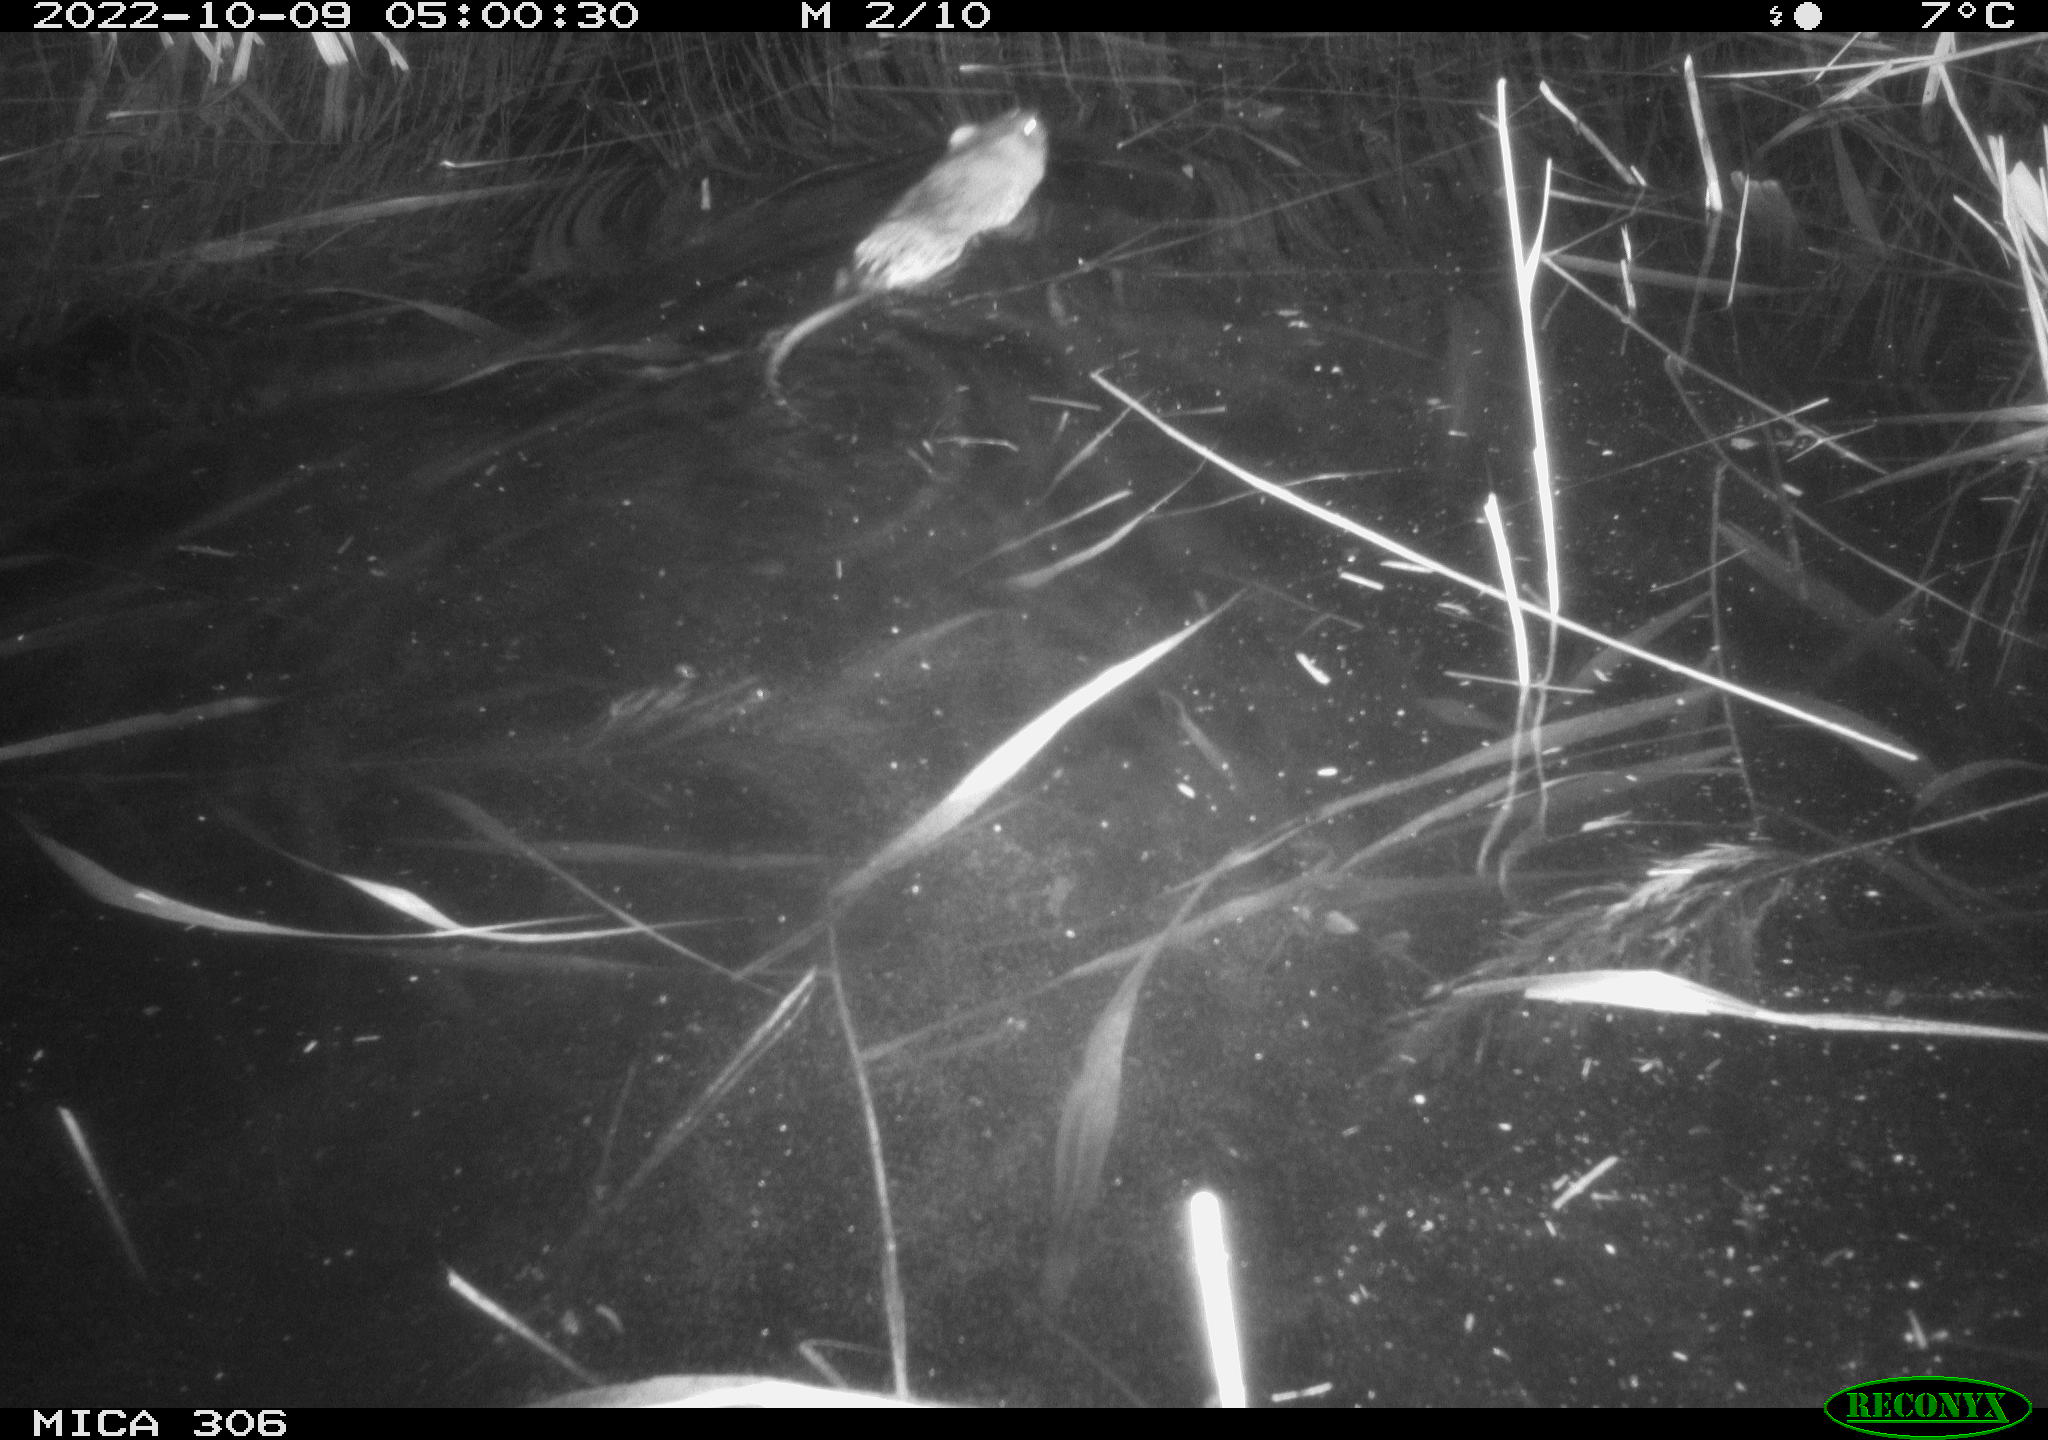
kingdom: Animalia
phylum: Chordata
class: Mammalia
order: Rodentia
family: Muridae
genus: Rattus
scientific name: Rattus norvegicus
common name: Brown rat
